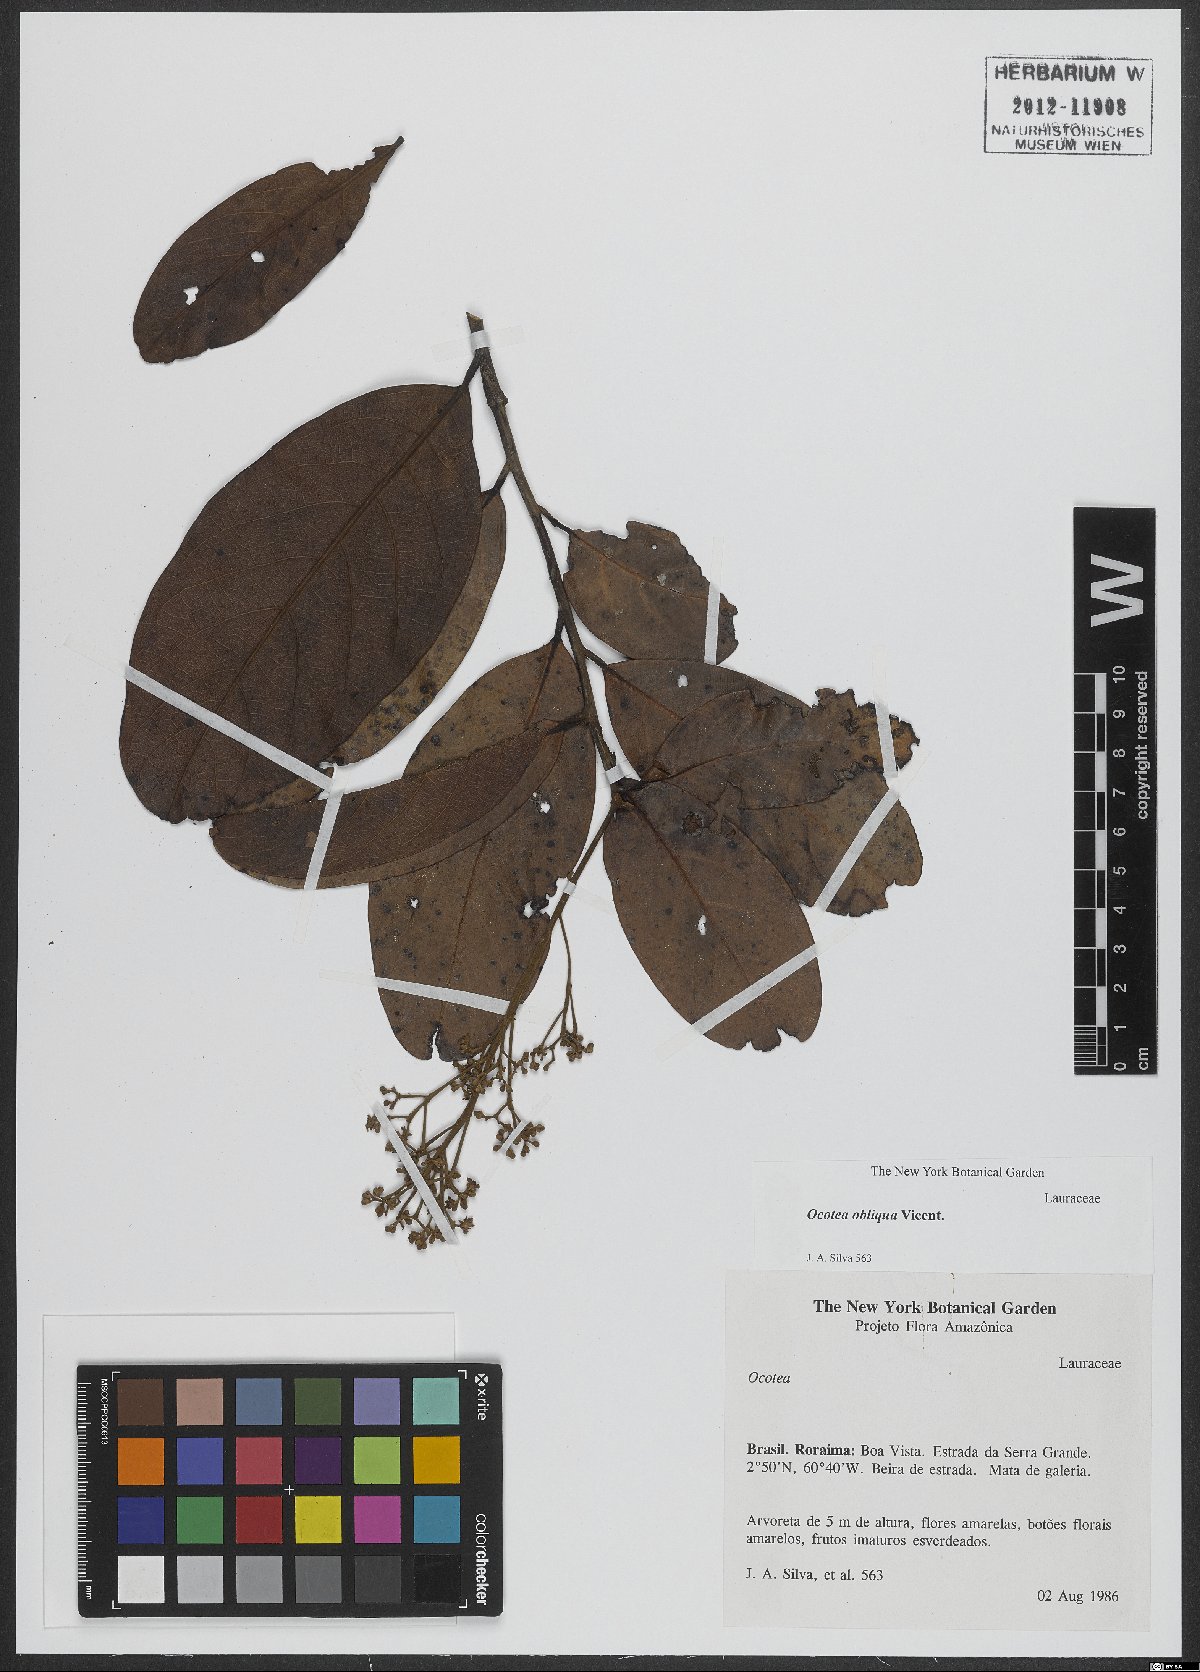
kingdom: Plantae
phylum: Tracheophyta
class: Magnoliopsida
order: Laurales
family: Lauraceae
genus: Ocotea
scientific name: Ocotea obliqua
